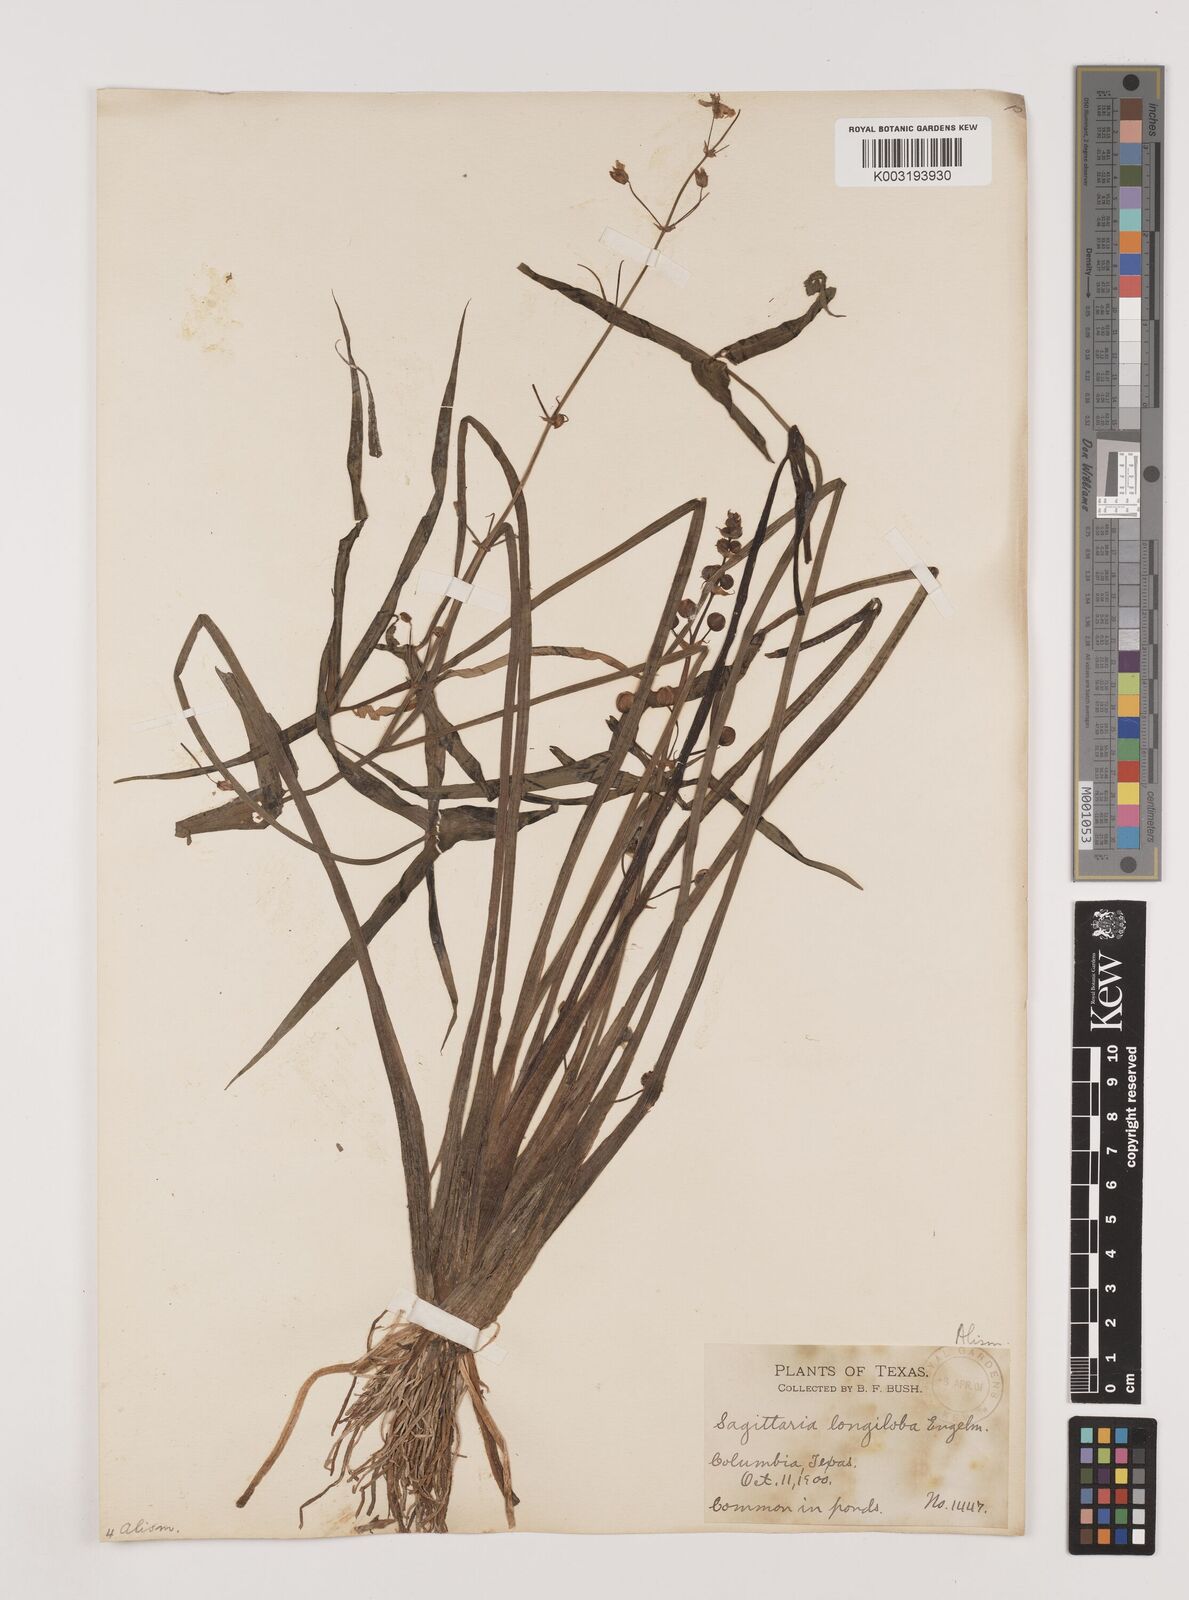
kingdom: Plantae
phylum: Tracheophyta
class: Liliopsida
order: Alismatales
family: Alismataceae
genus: Sagittaria
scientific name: Sagittaria longiloba
